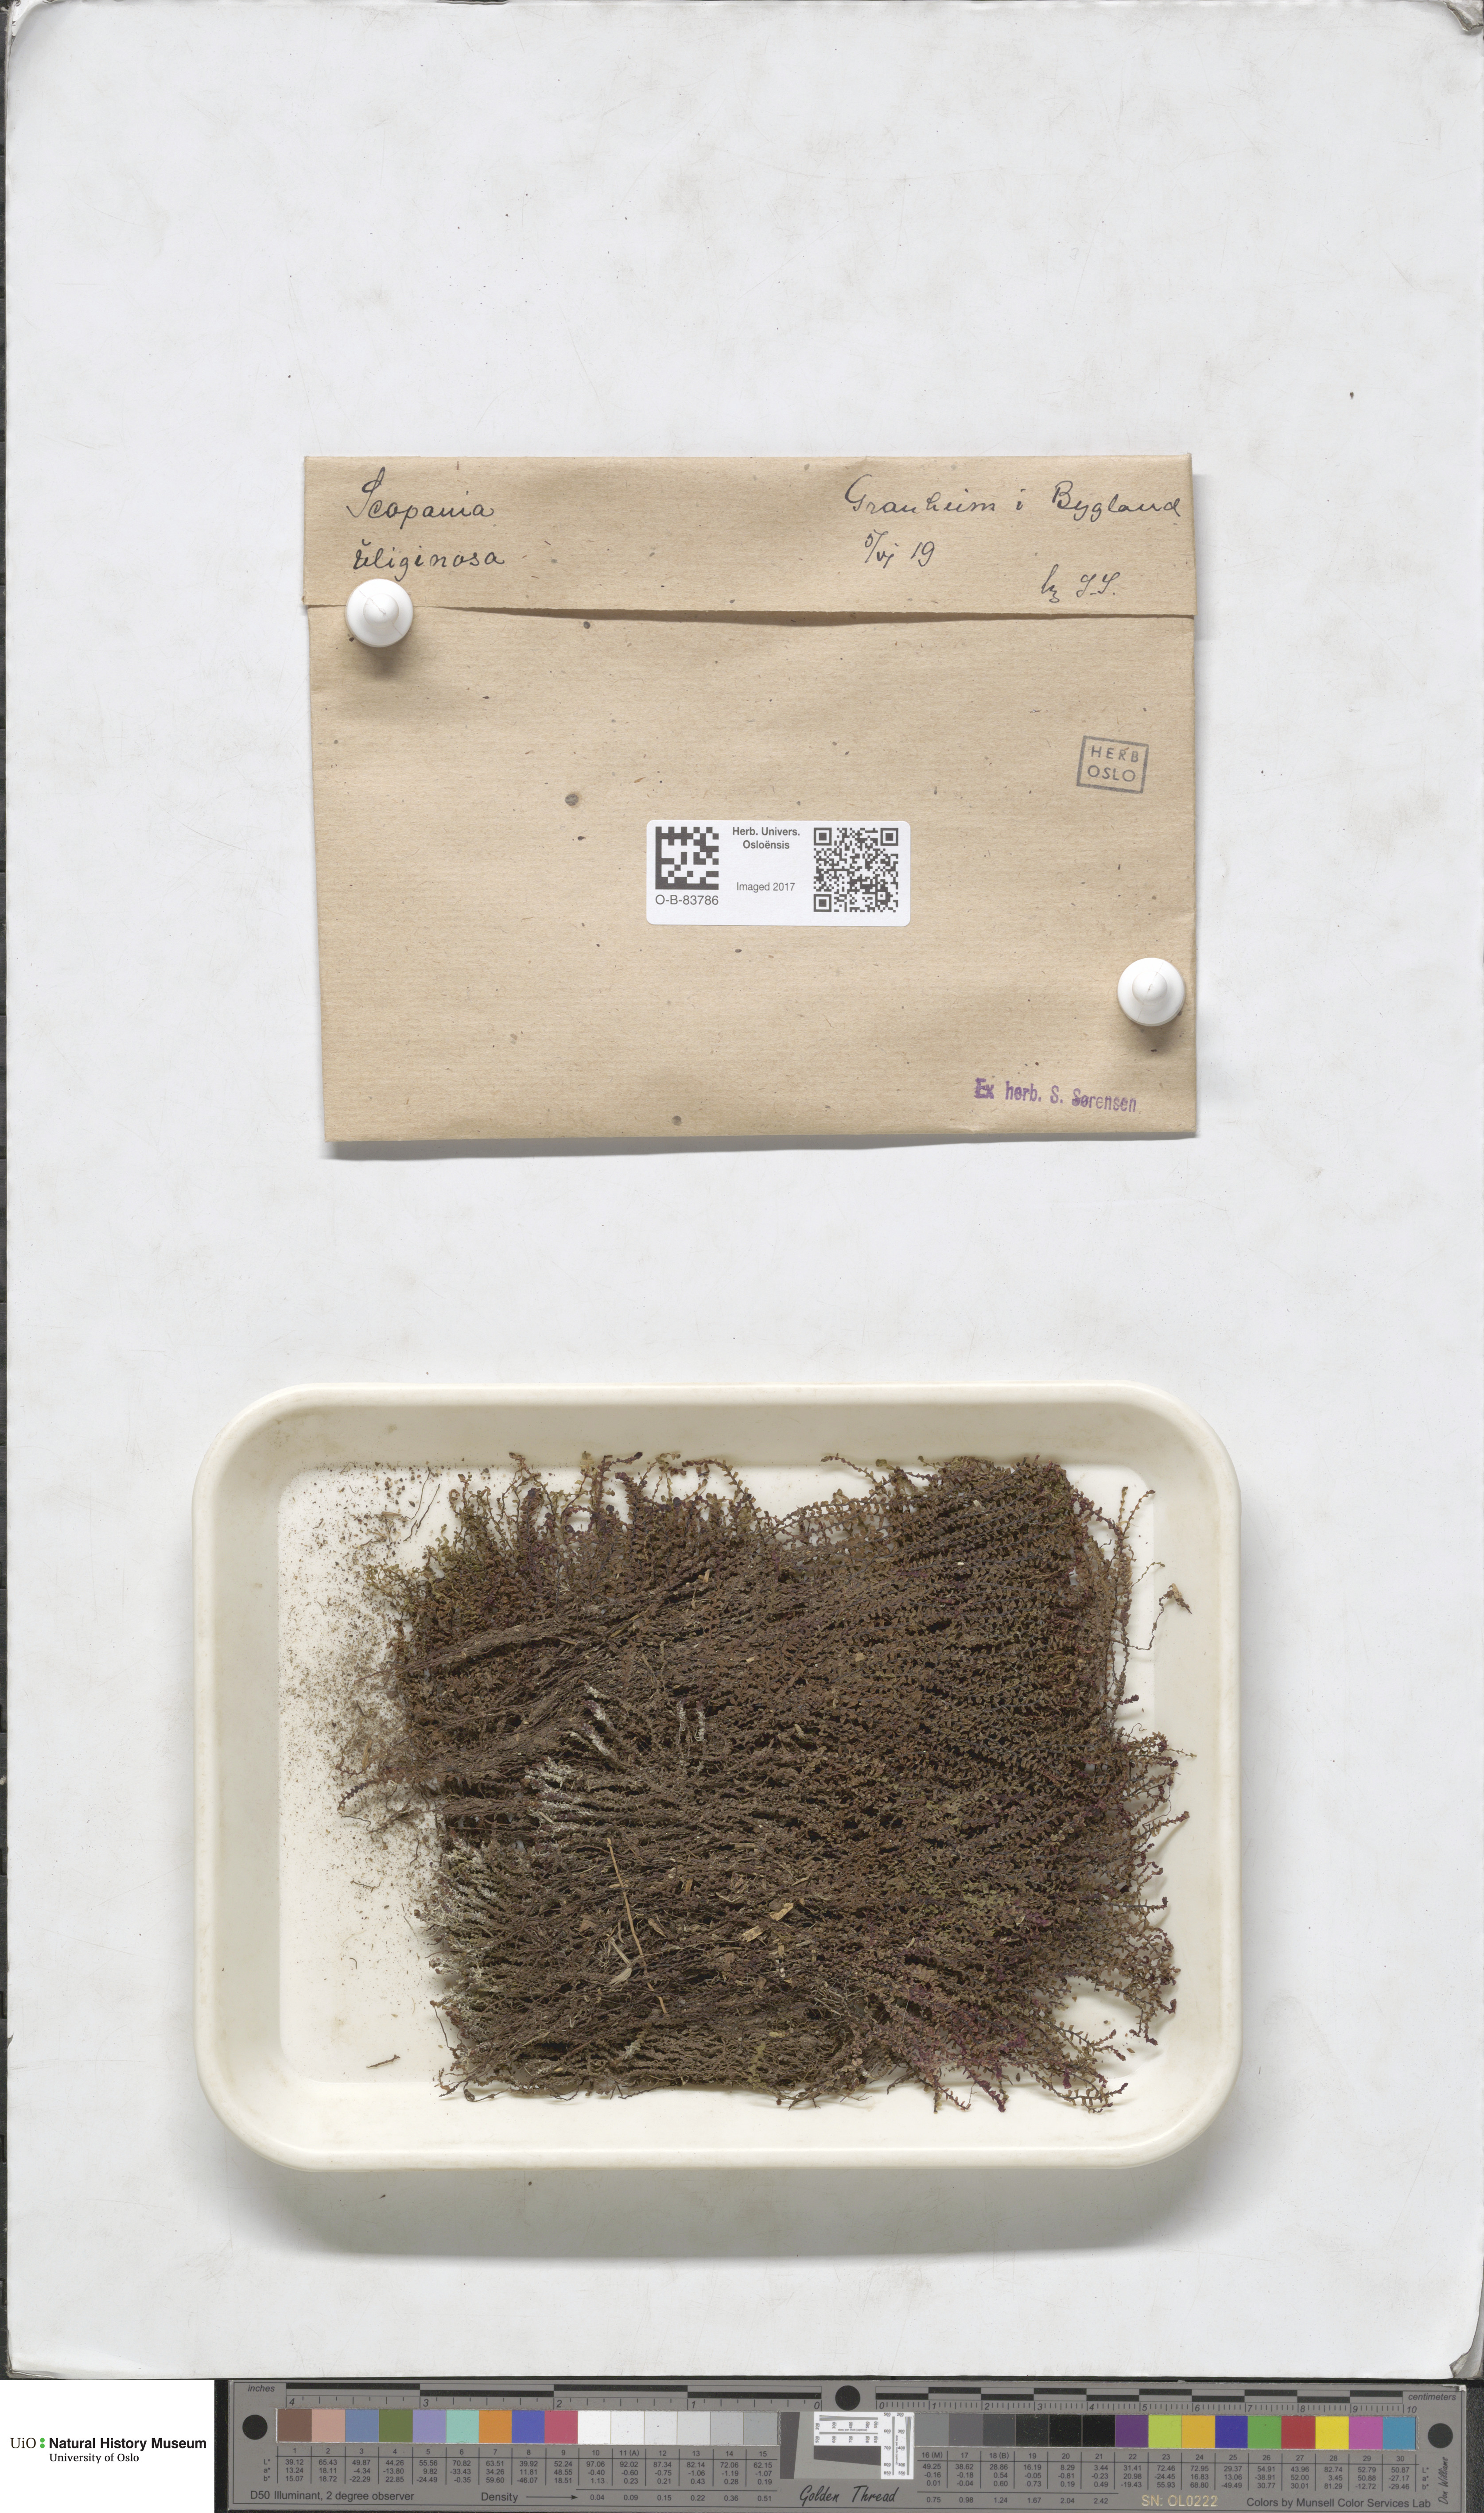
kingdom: Plantae
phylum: Marchantiophyta
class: Jungermanniopsida
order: Jungermanniales
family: Scapaniaceae
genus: Scapania
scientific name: Scapania uliginosa
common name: Marsh earwort
